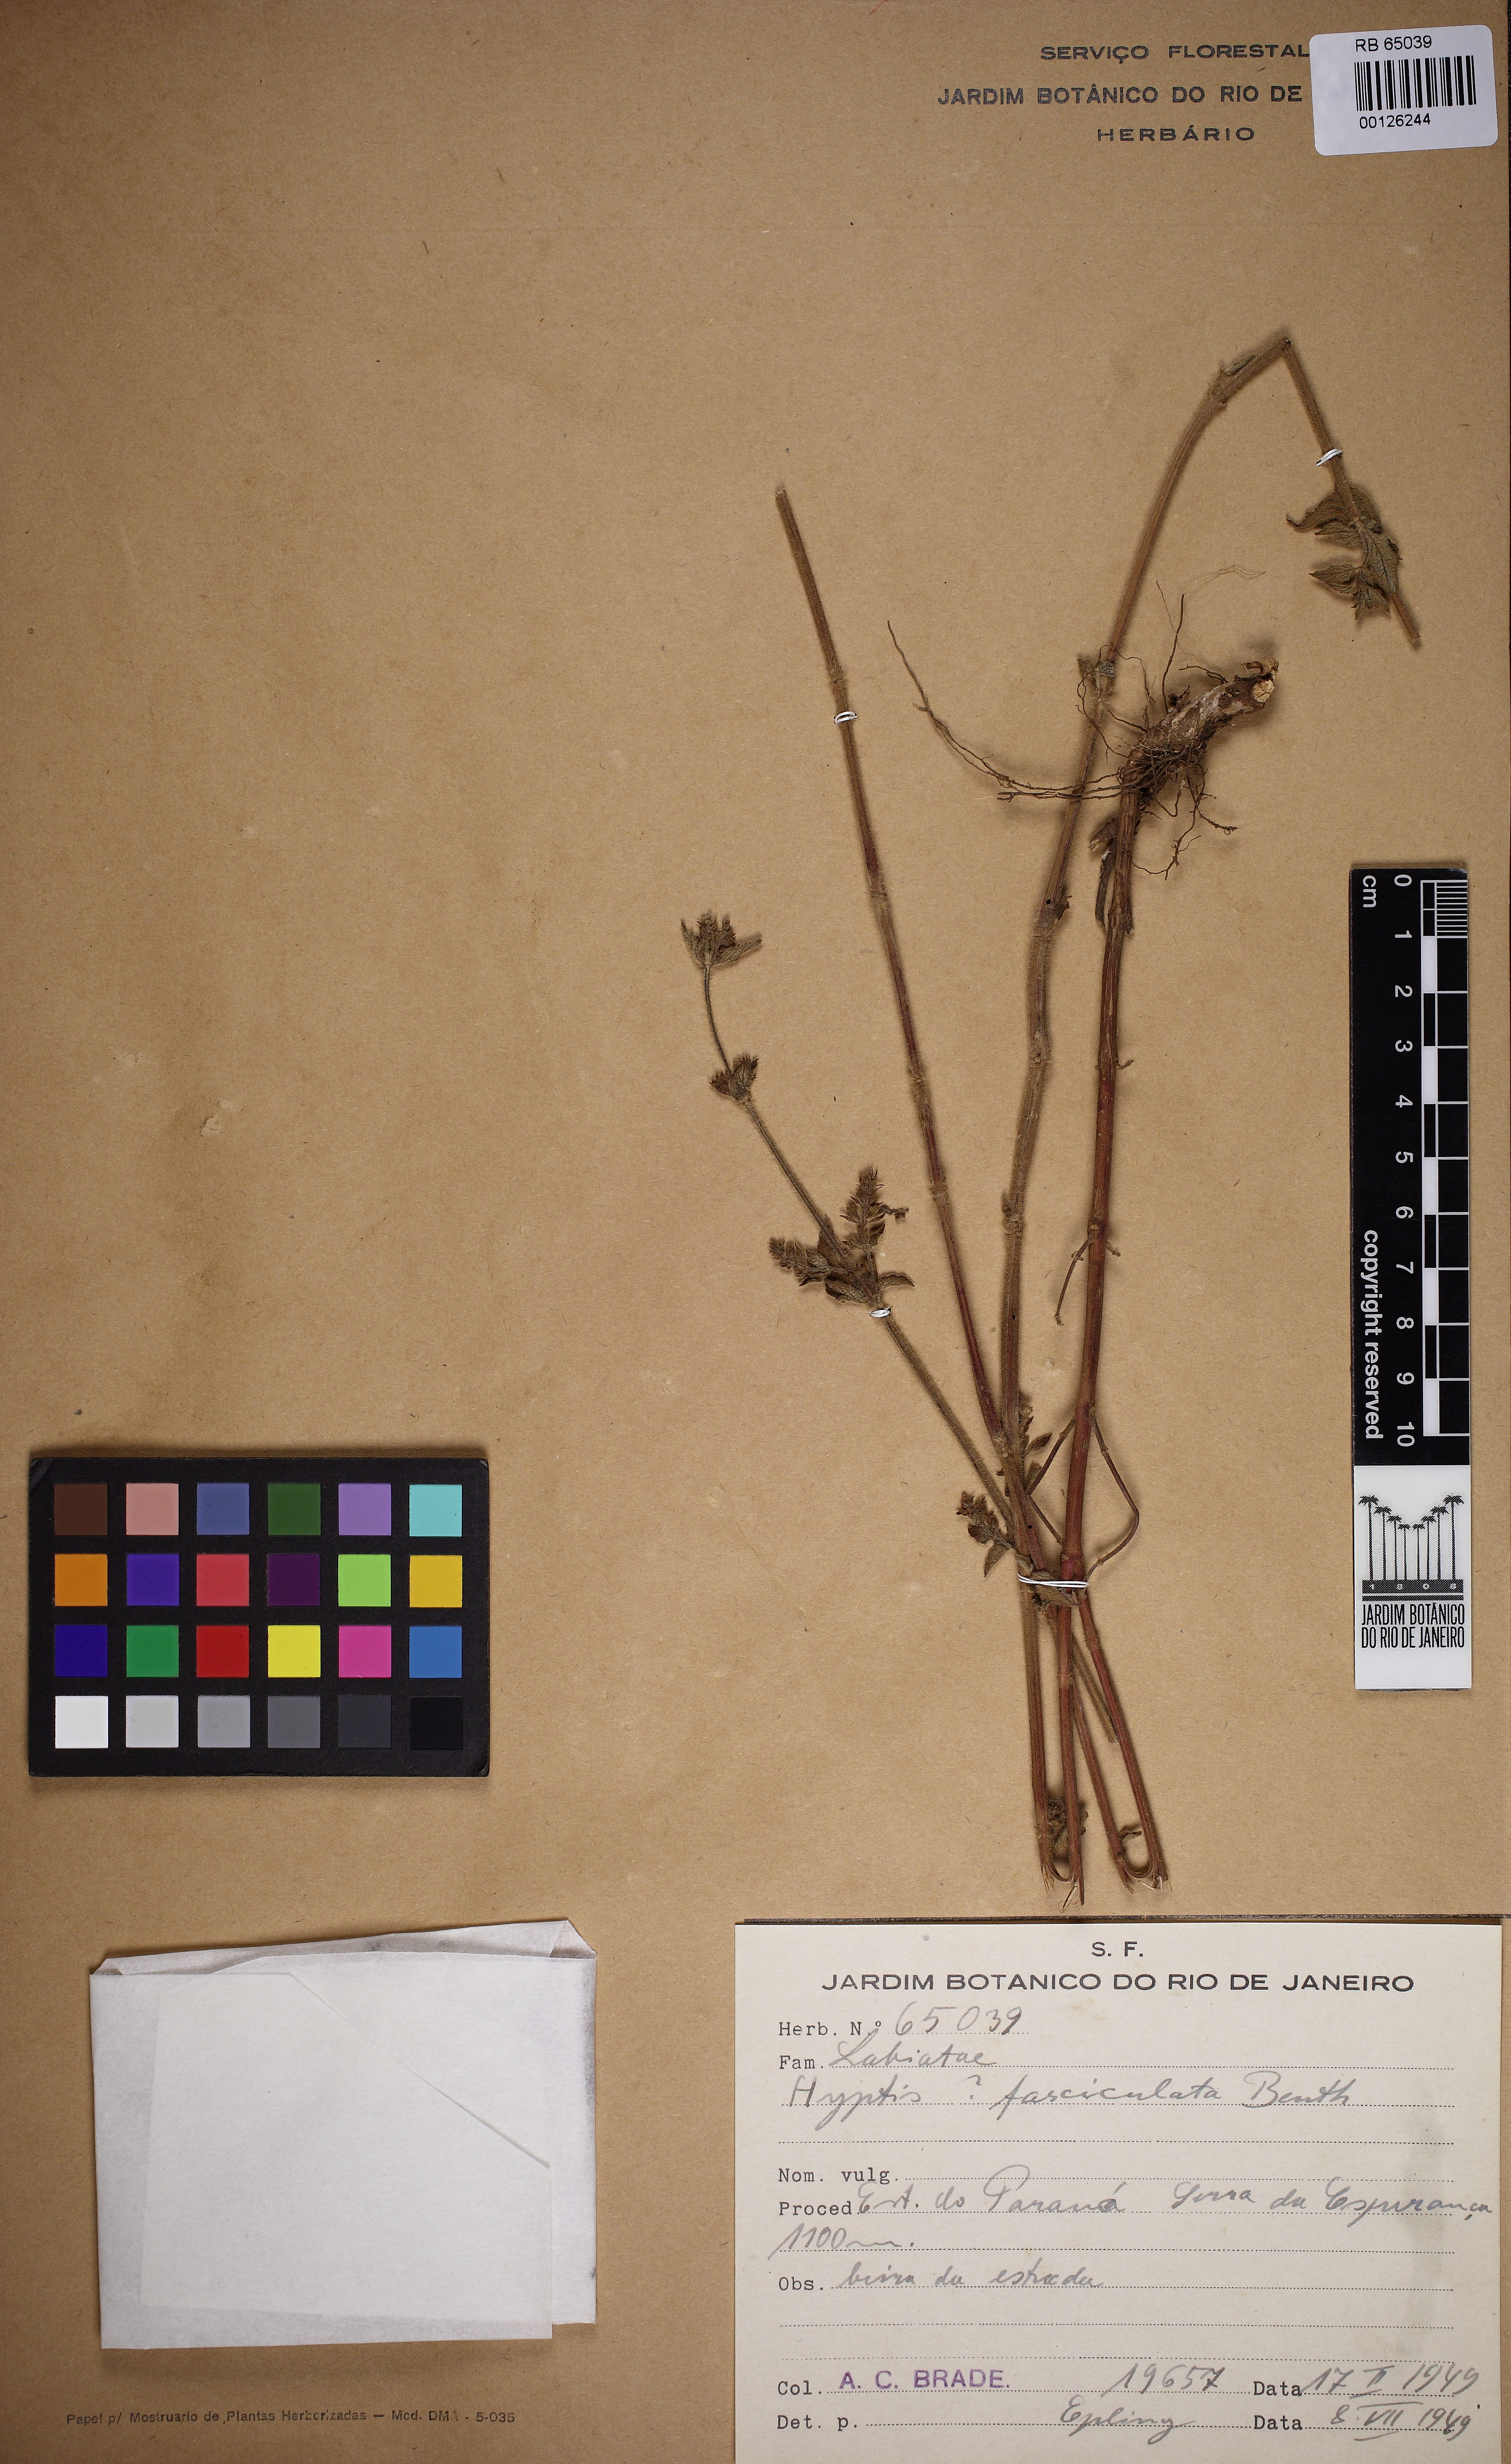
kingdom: Plantae
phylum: Tracheophyta
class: Magnoliopsida
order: Lamiales
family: Lamiaceae
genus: Condea
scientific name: Condea undulata
